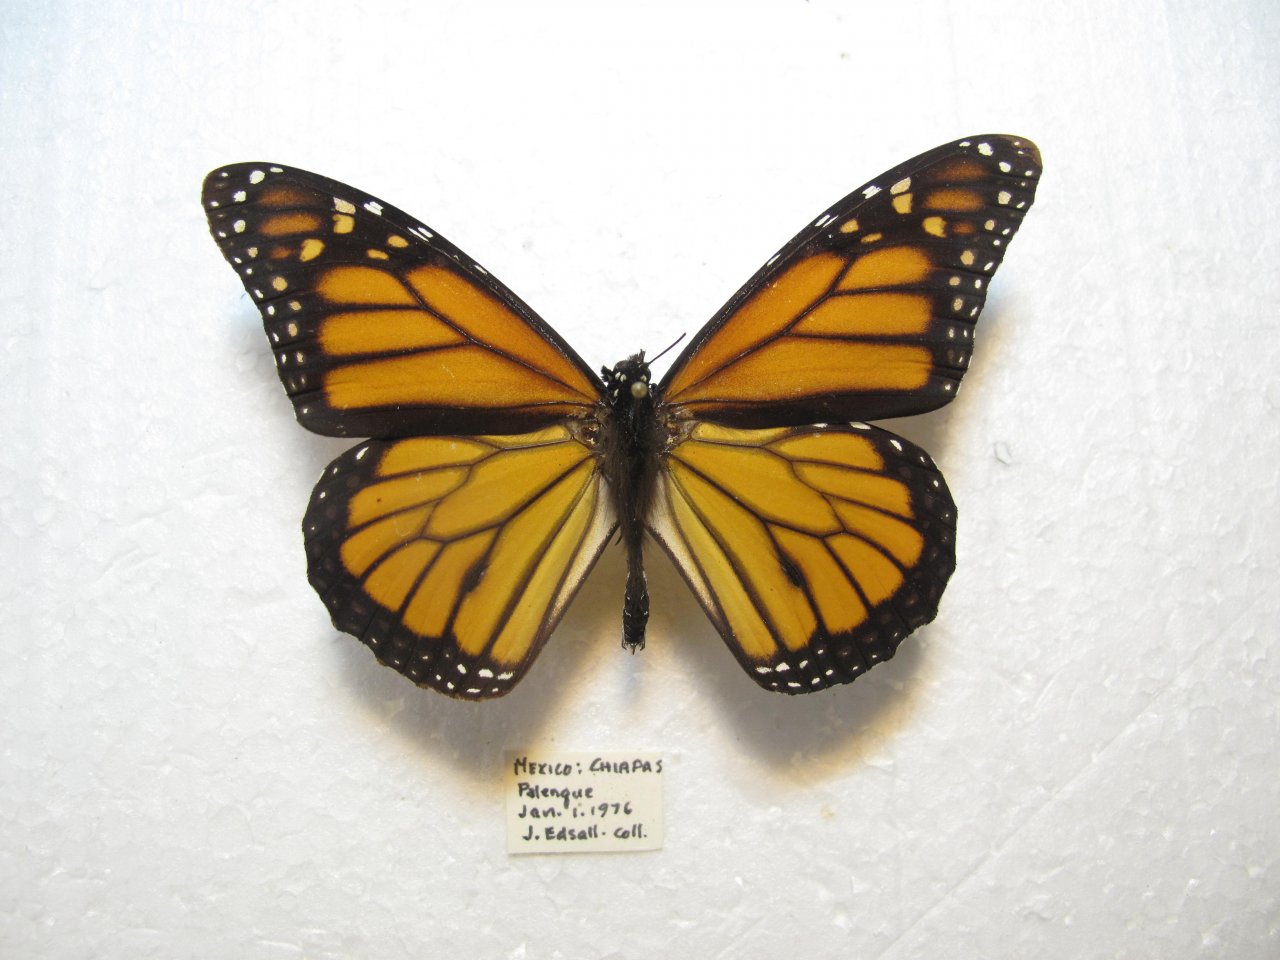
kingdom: Animalia
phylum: Arthropoda
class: Insecta
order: Lepidoptera
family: Nymphalidae
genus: Danaus
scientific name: Danaus plexippus
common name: Monarch
